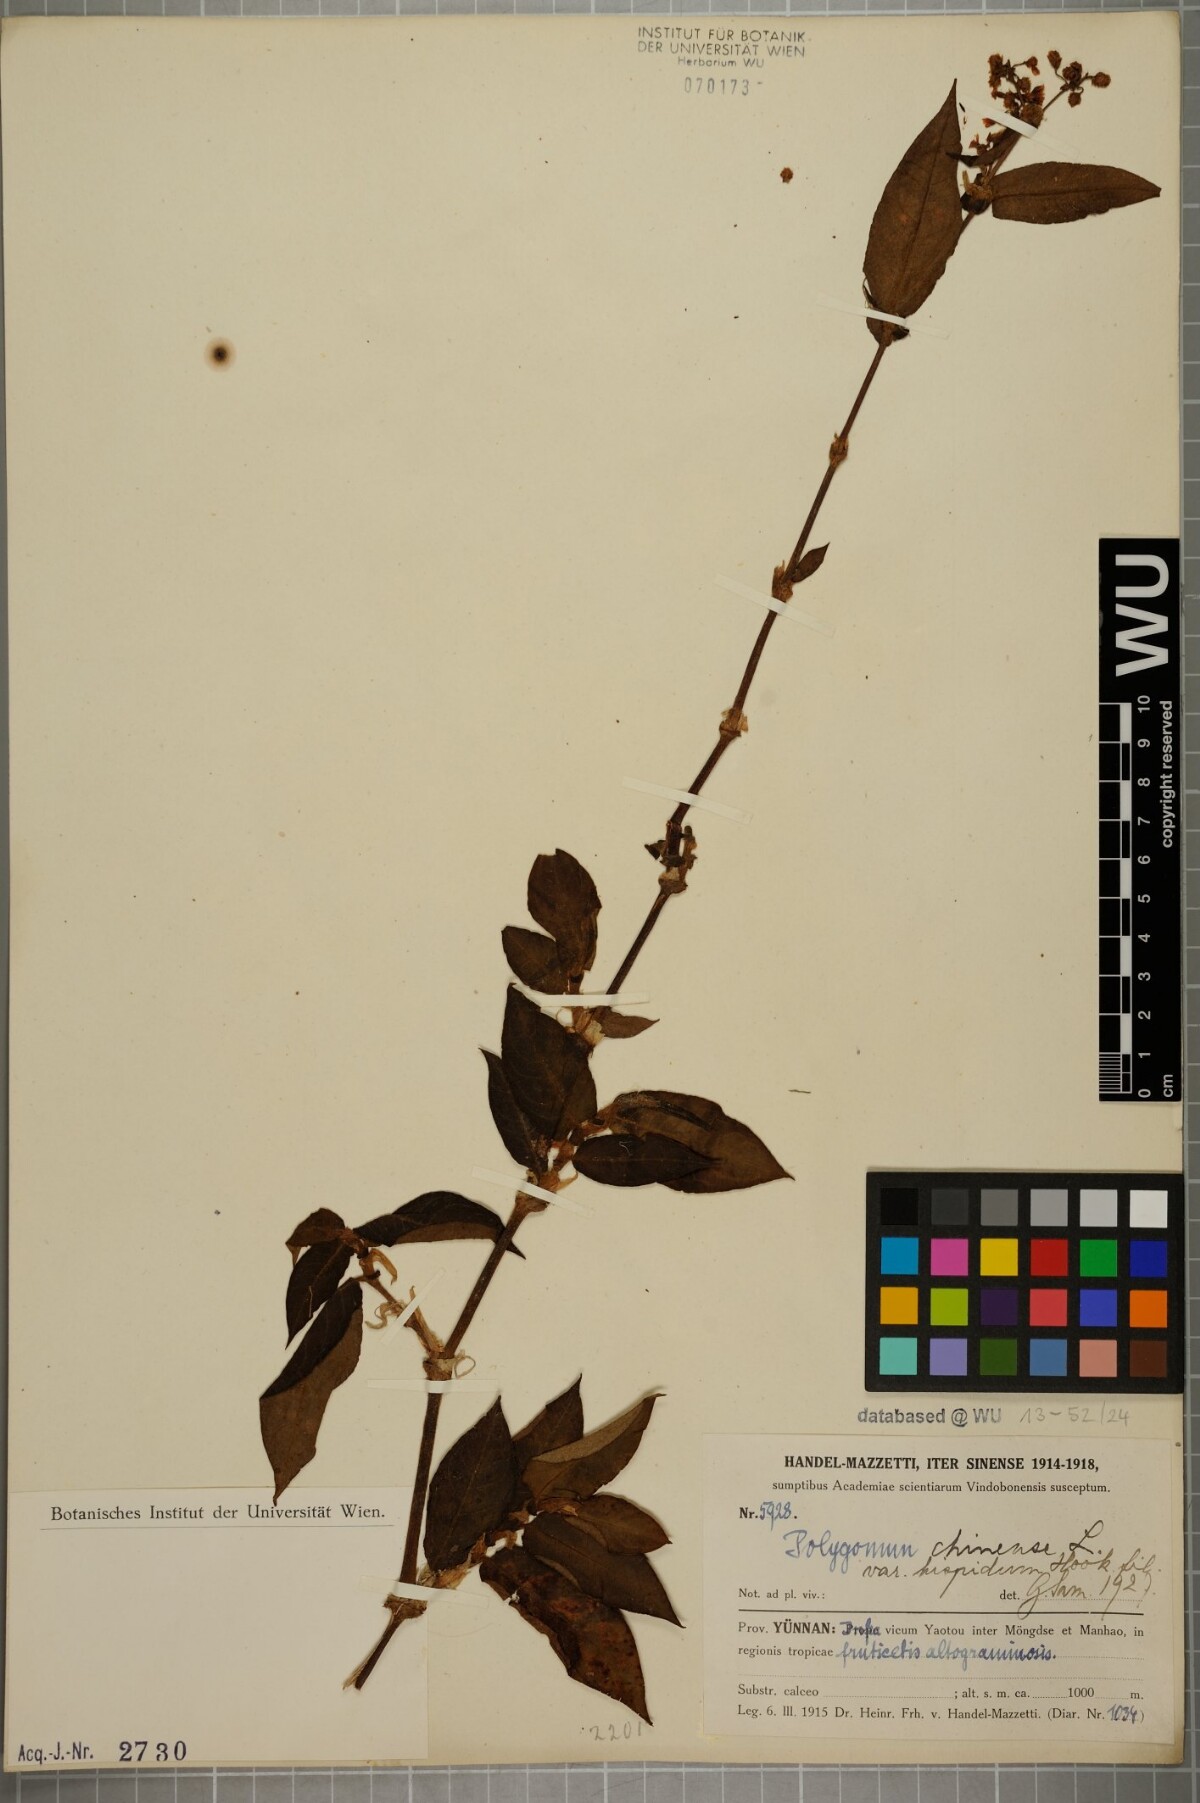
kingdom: Plantae
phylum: Tracheophyta
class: Magnoliopsida
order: Caryophyllales
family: Polygonaceae
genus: Persicaria
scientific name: Persicaria chinensis
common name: Chinese knotweed
